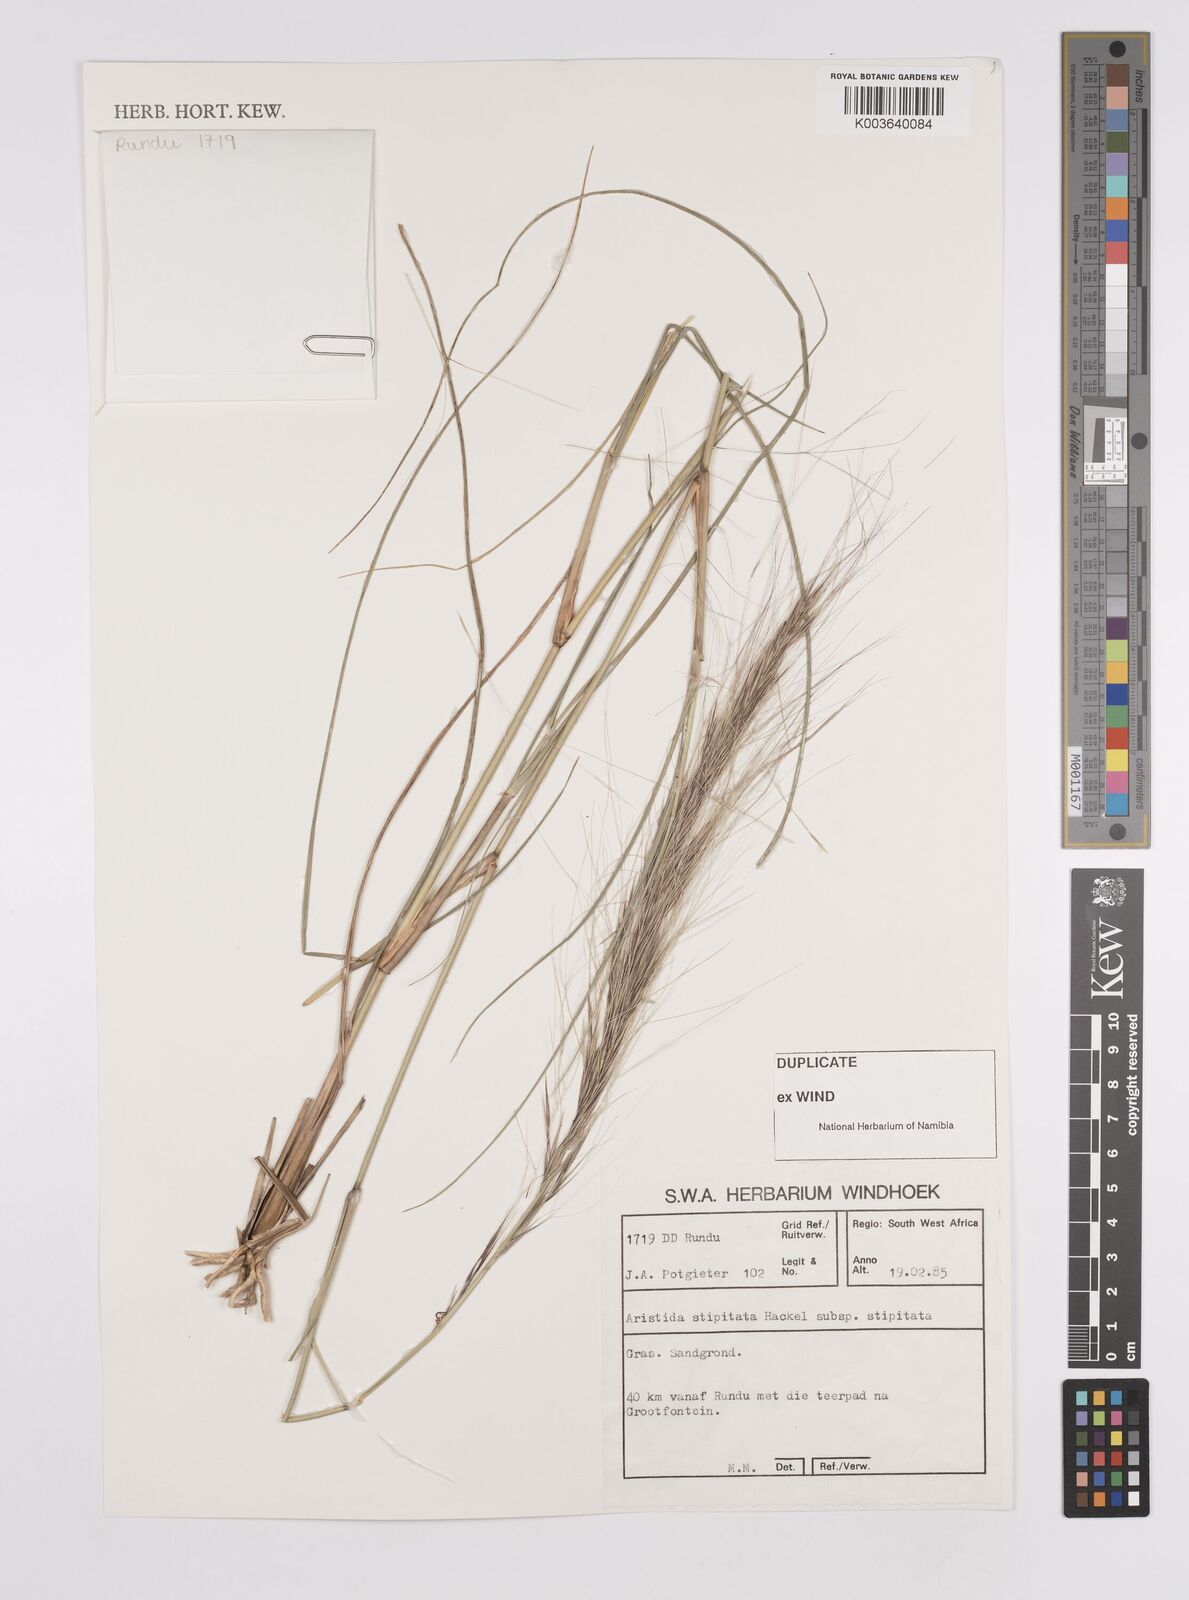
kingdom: Plantae
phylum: Tracheophyta
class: Liliopsida
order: Poales
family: Poaceae
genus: Aristida
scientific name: Aristida stipitata
